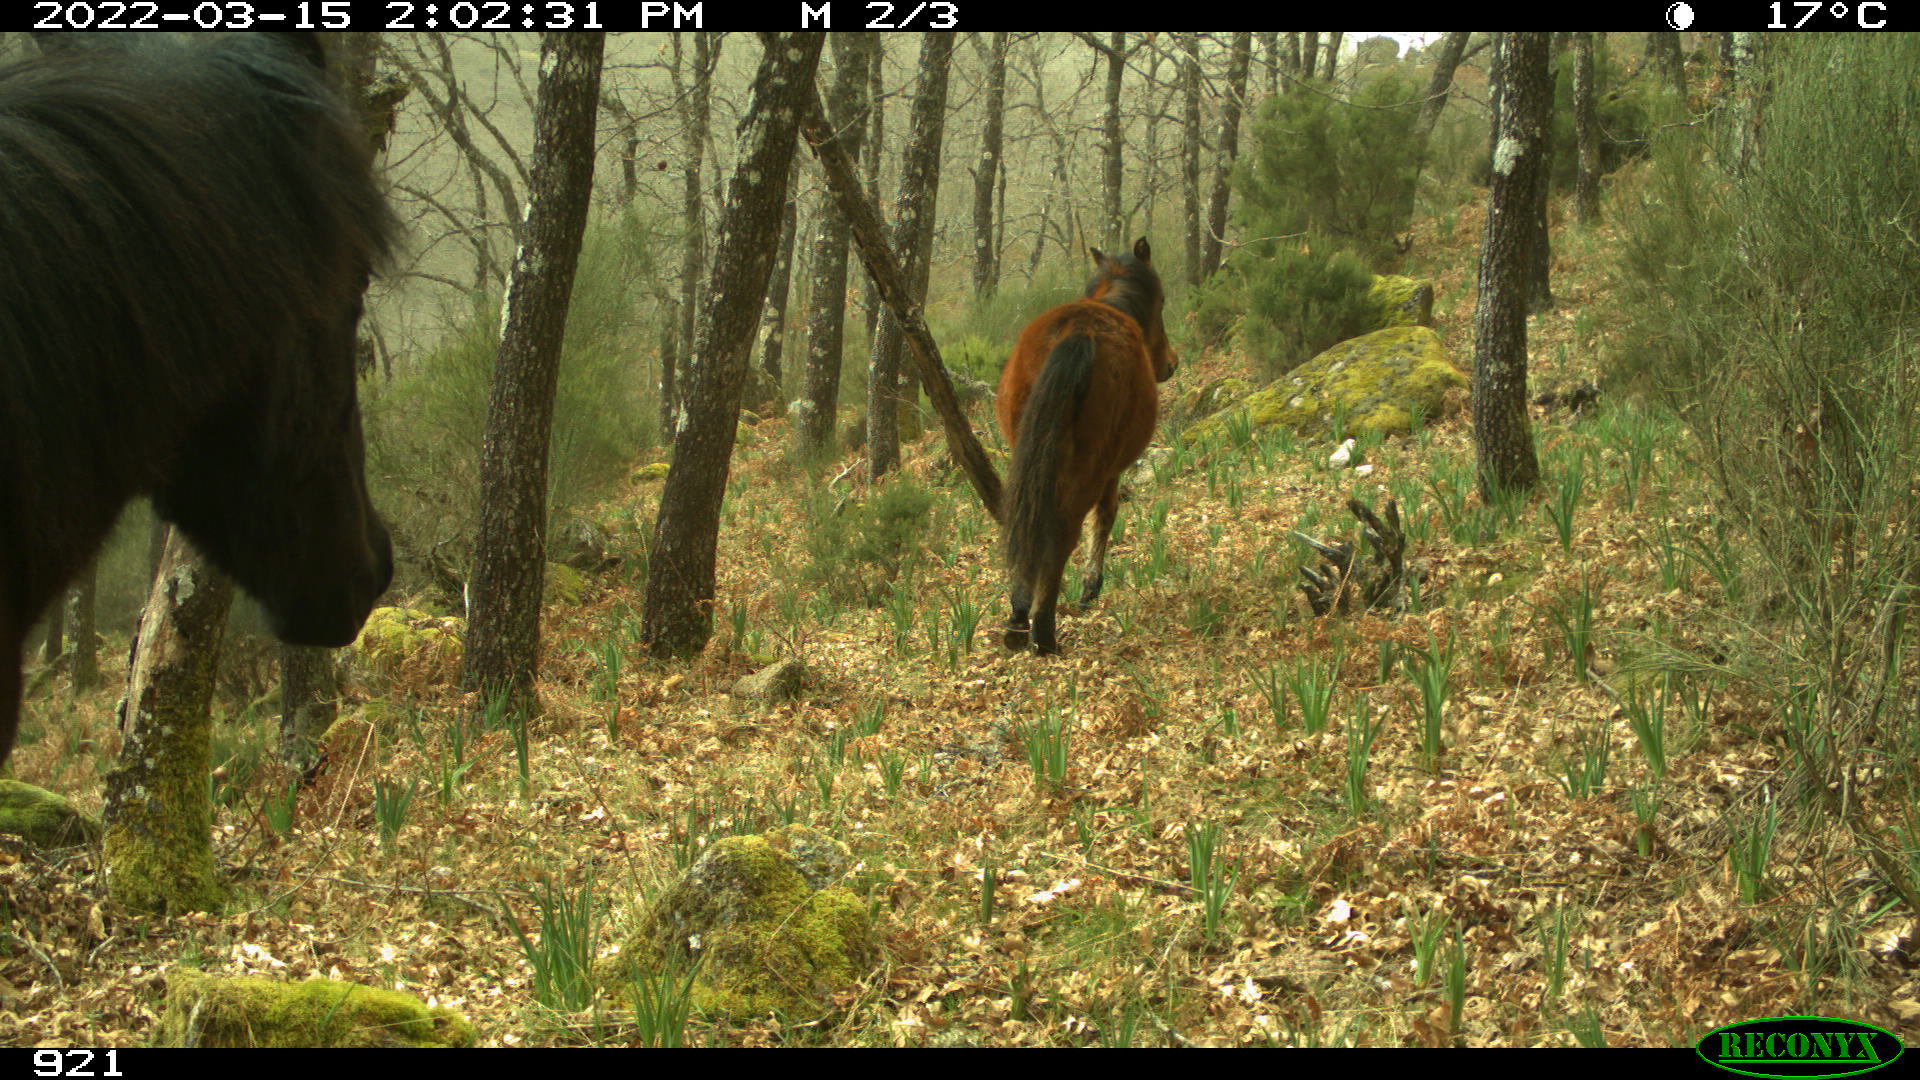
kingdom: Animalia
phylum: Chordata
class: Mammalia
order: Perissodactyla
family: Equidae
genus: Equus
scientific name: Equus caballus
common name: Horse
